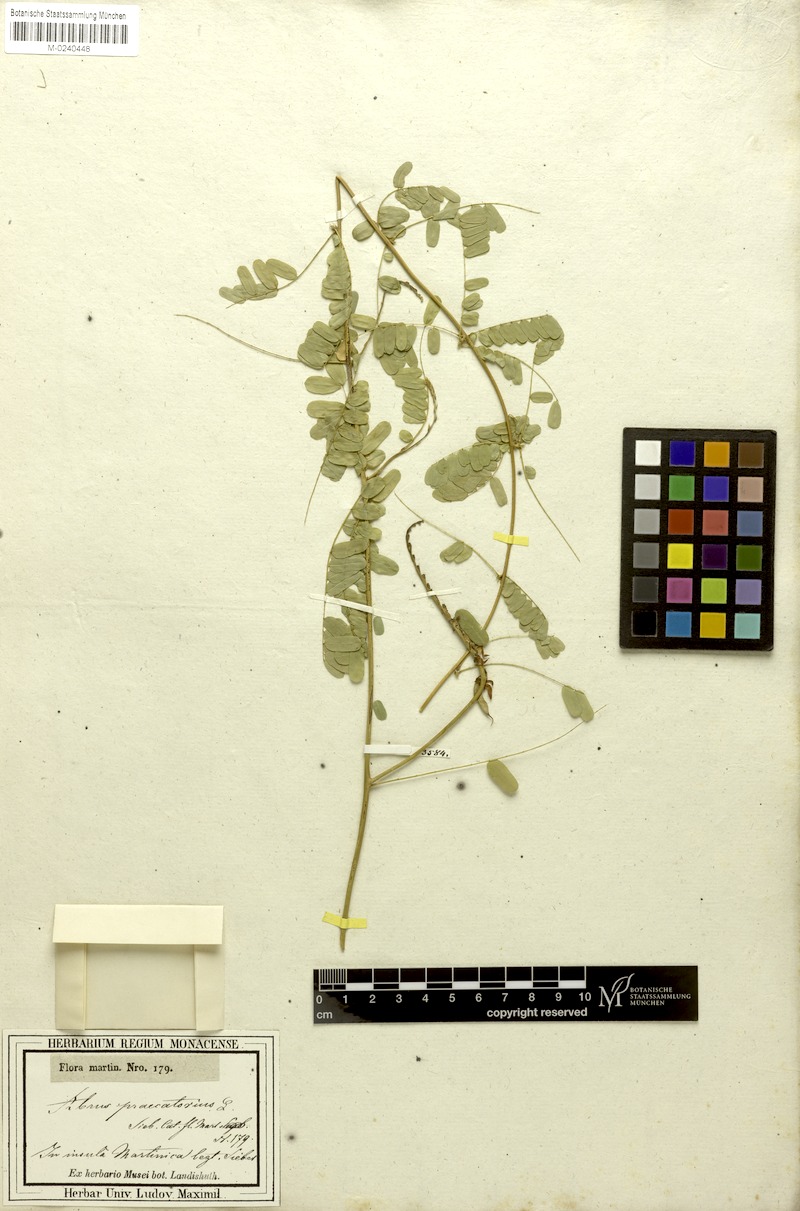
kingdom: Plantae
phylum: Tracheophyta
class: Magnoliopsida
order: Fabales
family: Fabaceae
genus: Abrus
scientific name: Abrus precatorius
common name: Rosarypea
